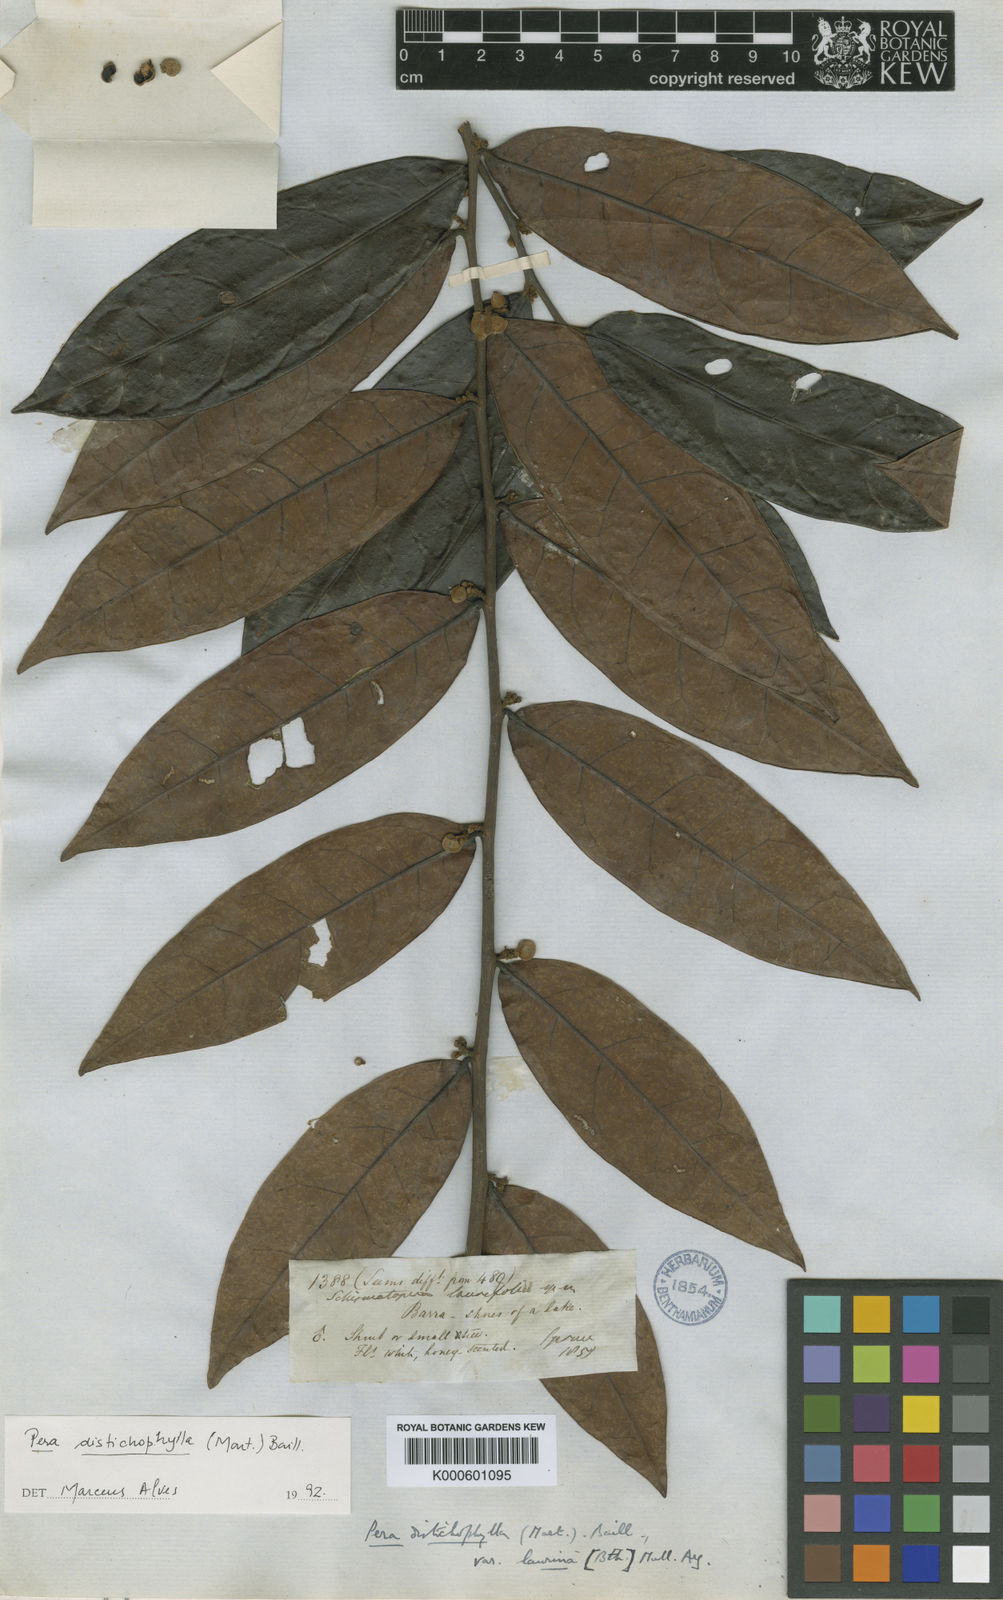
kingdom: Plantae
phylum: Tracheophyta
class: Magnoliopsida
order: Malpighiales
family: Peraceae
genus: Pera
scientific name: Pera distichophylla
